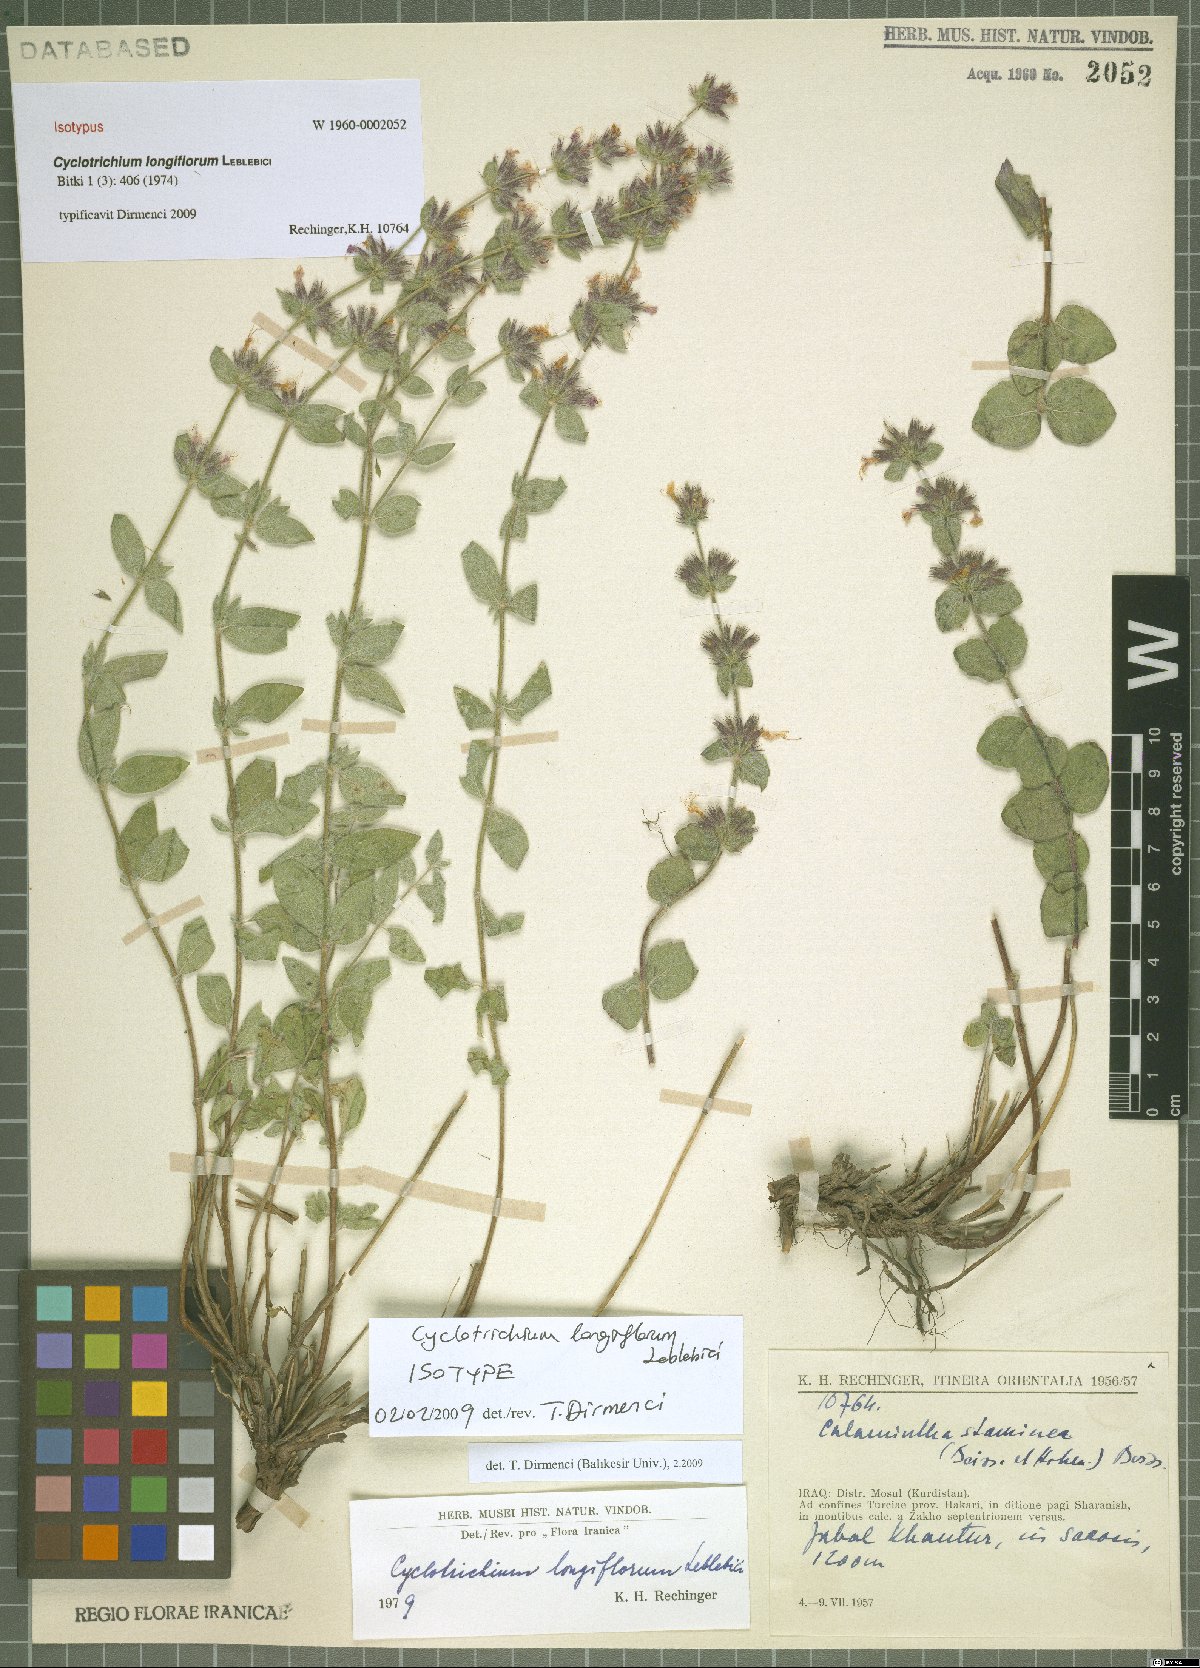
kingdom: Plantae
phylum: Tracheophyta
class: Magnoliopsida
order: Lamiales
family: Lamiaceae
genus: Cyclotrichium
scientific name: Cyclotrichium longiflorum
